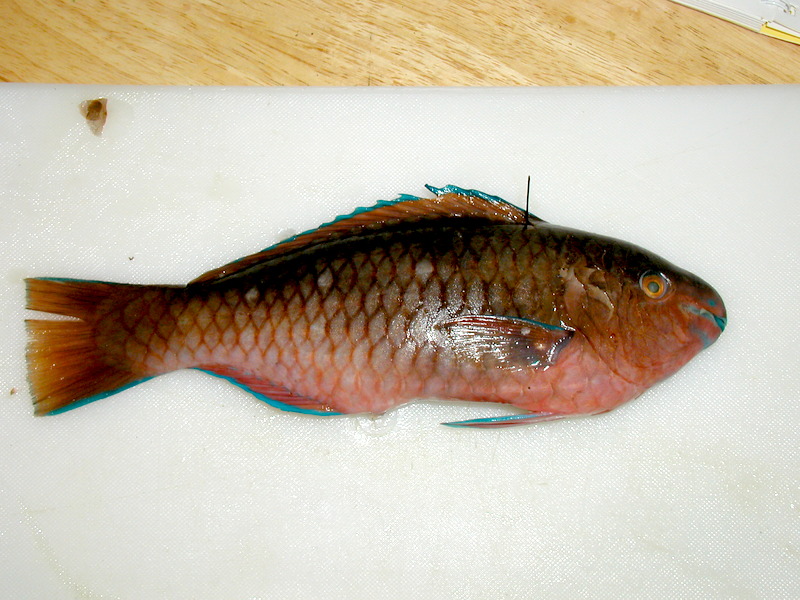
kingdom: Animalia
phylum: Chordata
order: Perciformes
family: Scaridae
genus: Scarus
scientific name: Scarus persicus
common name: Gulf parrotfish
